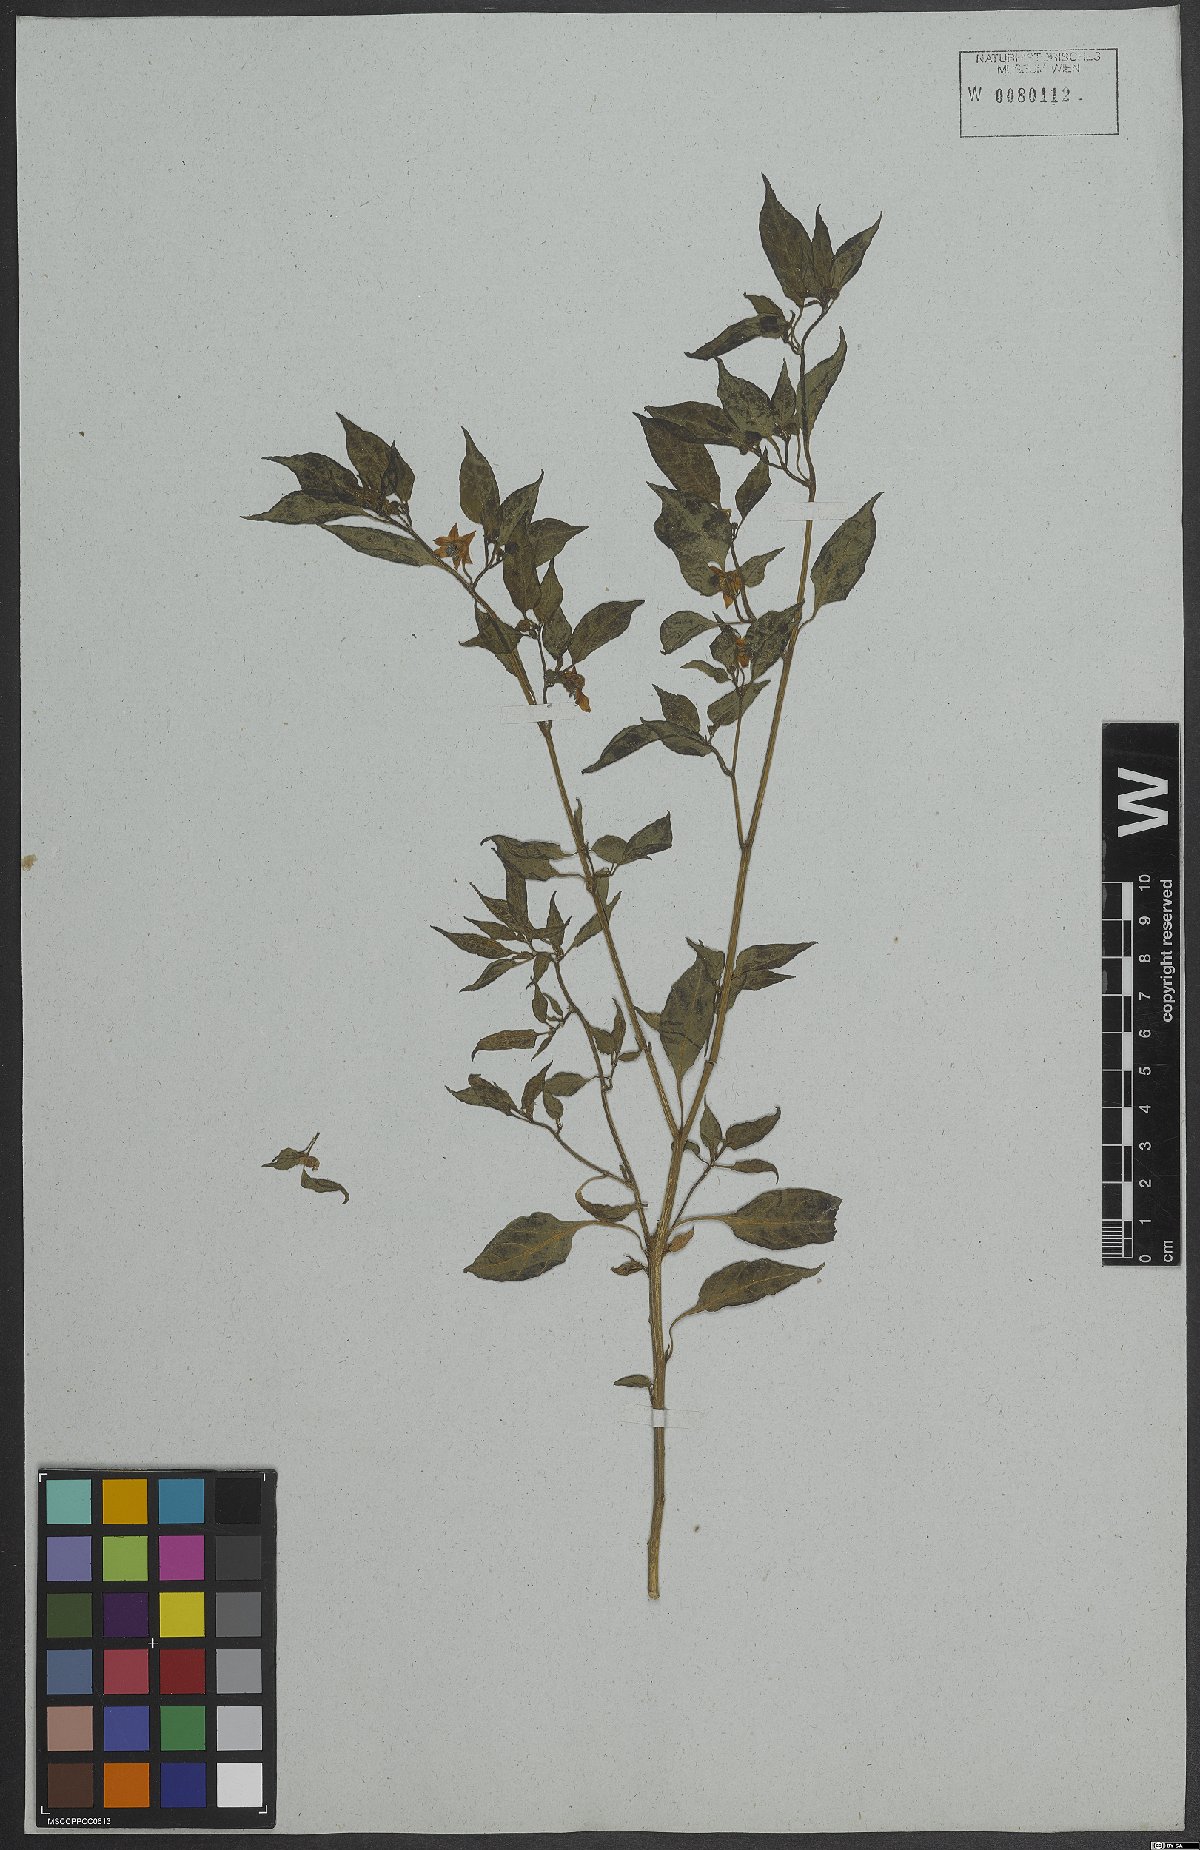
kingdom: Plantae
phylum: Tracheophyta
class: Magnoliopsida
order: Solanales
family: Solanaceae
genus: Capsicum
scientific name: Capsicum baccatum
